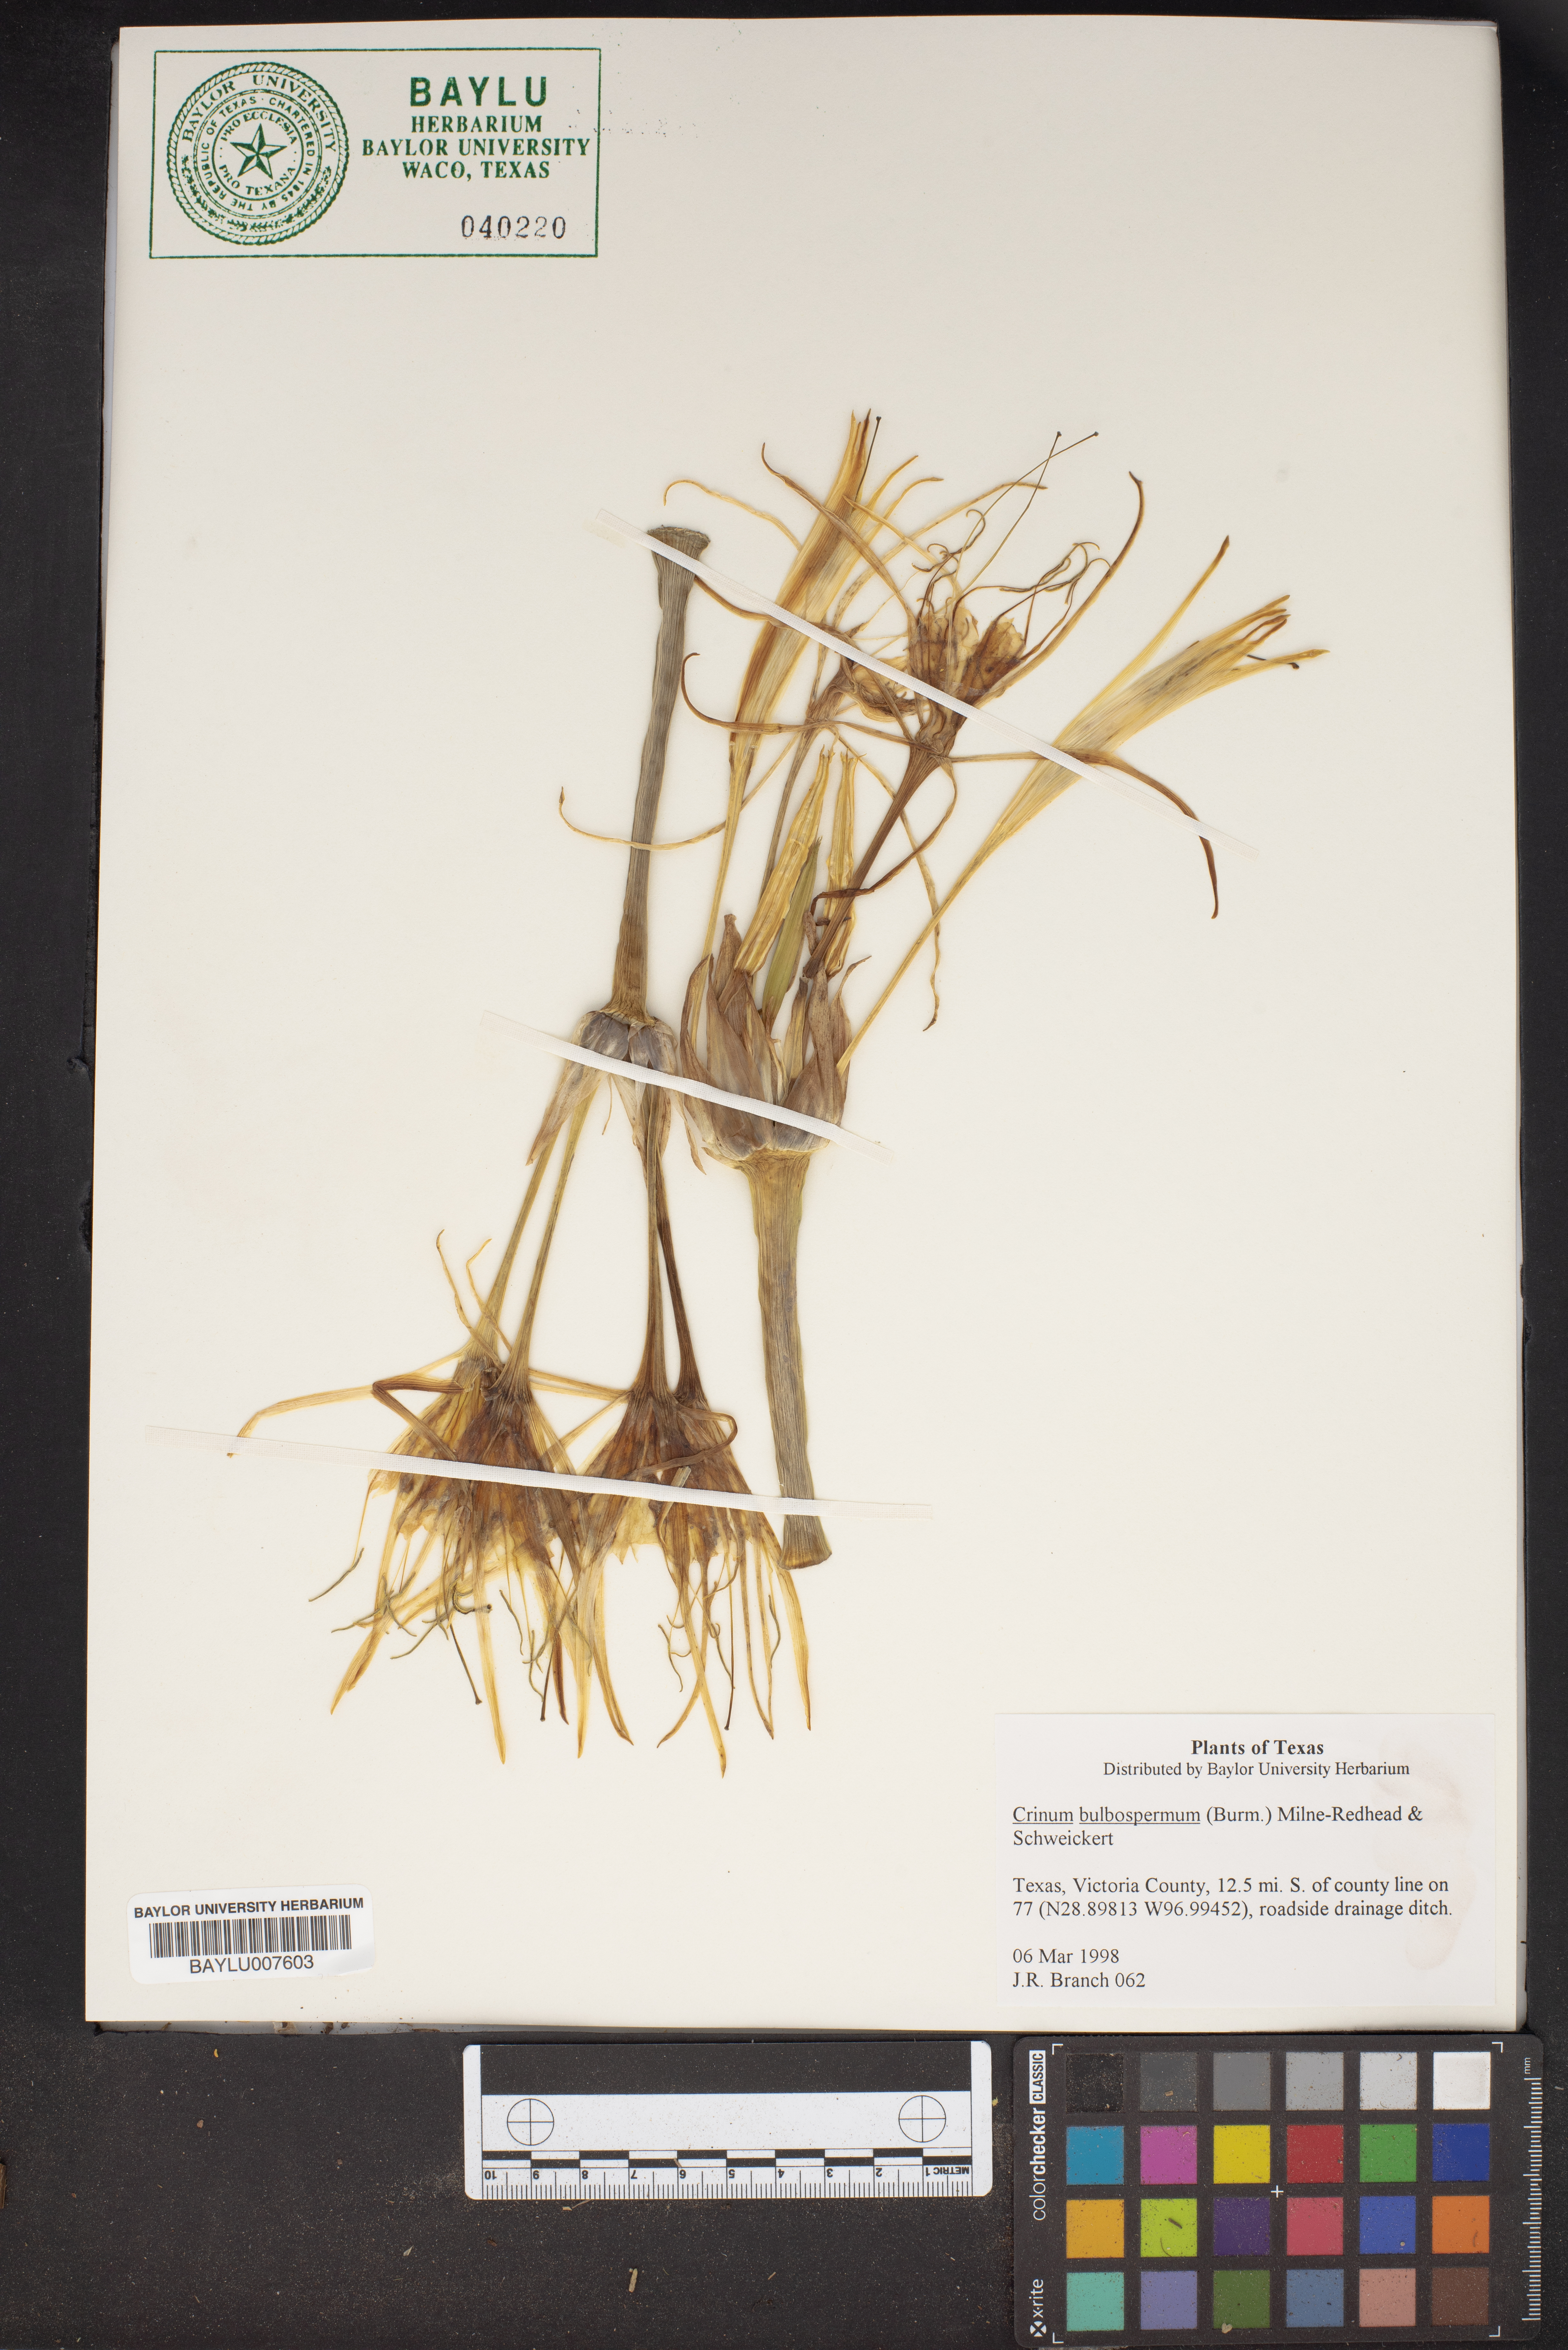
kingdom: Plantae
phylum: Tracheophyta
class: Liliopsida
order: Asparagales
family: Amaryllidaceae
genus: Crinum
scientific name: Crinum bulbispermum
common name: Hardy swamplily
